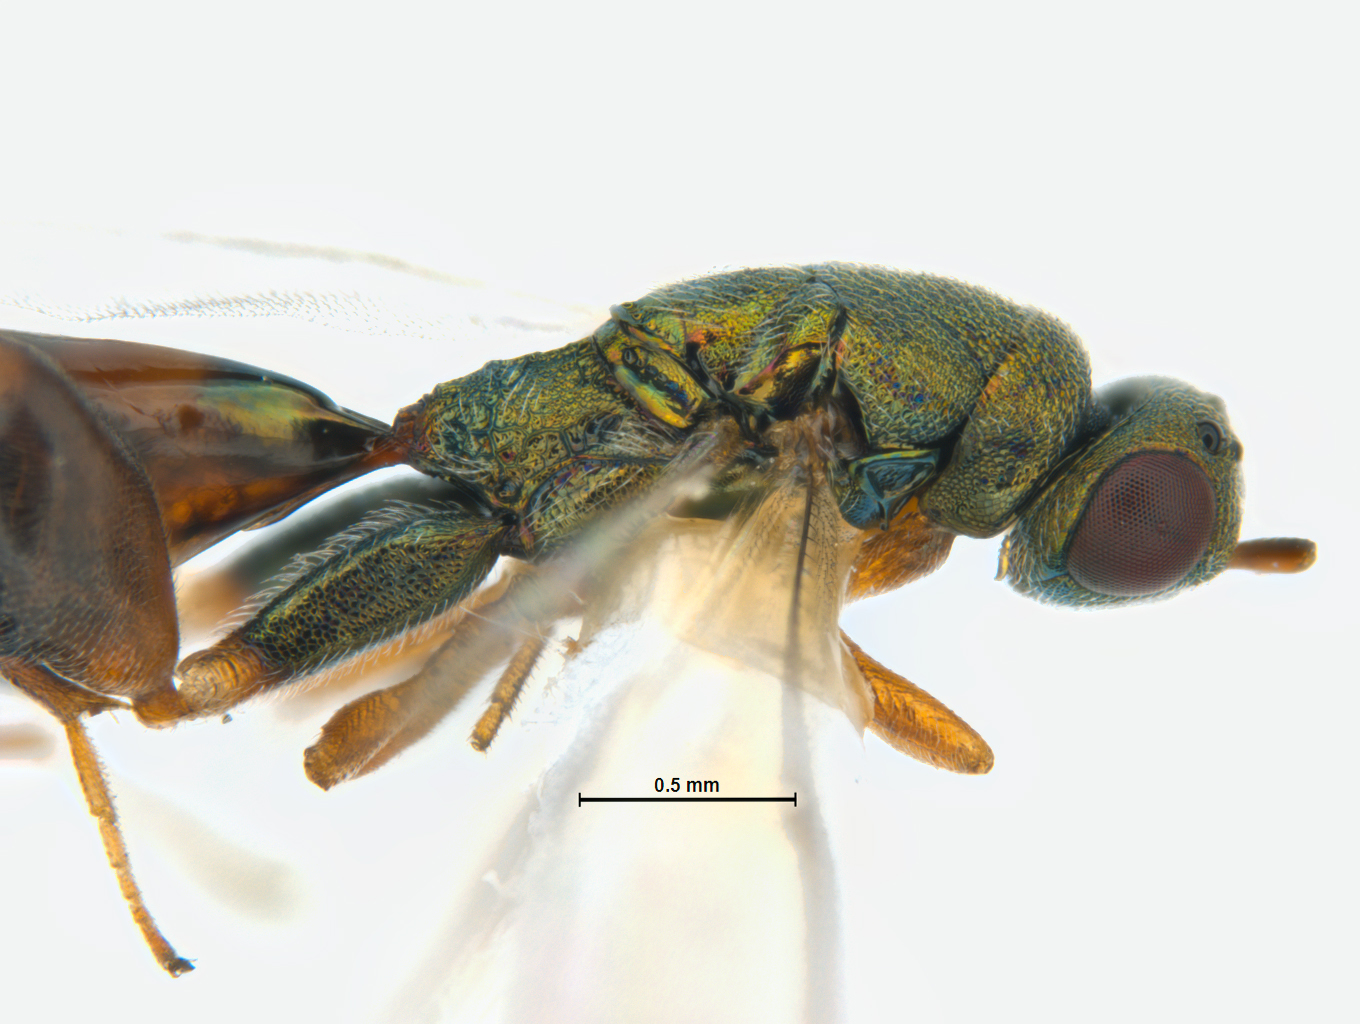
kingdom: Animalia
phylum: Arthropoda
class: Insecta
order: Hymenoptera
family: Torymidae
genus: Palmon
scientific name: Palmon
